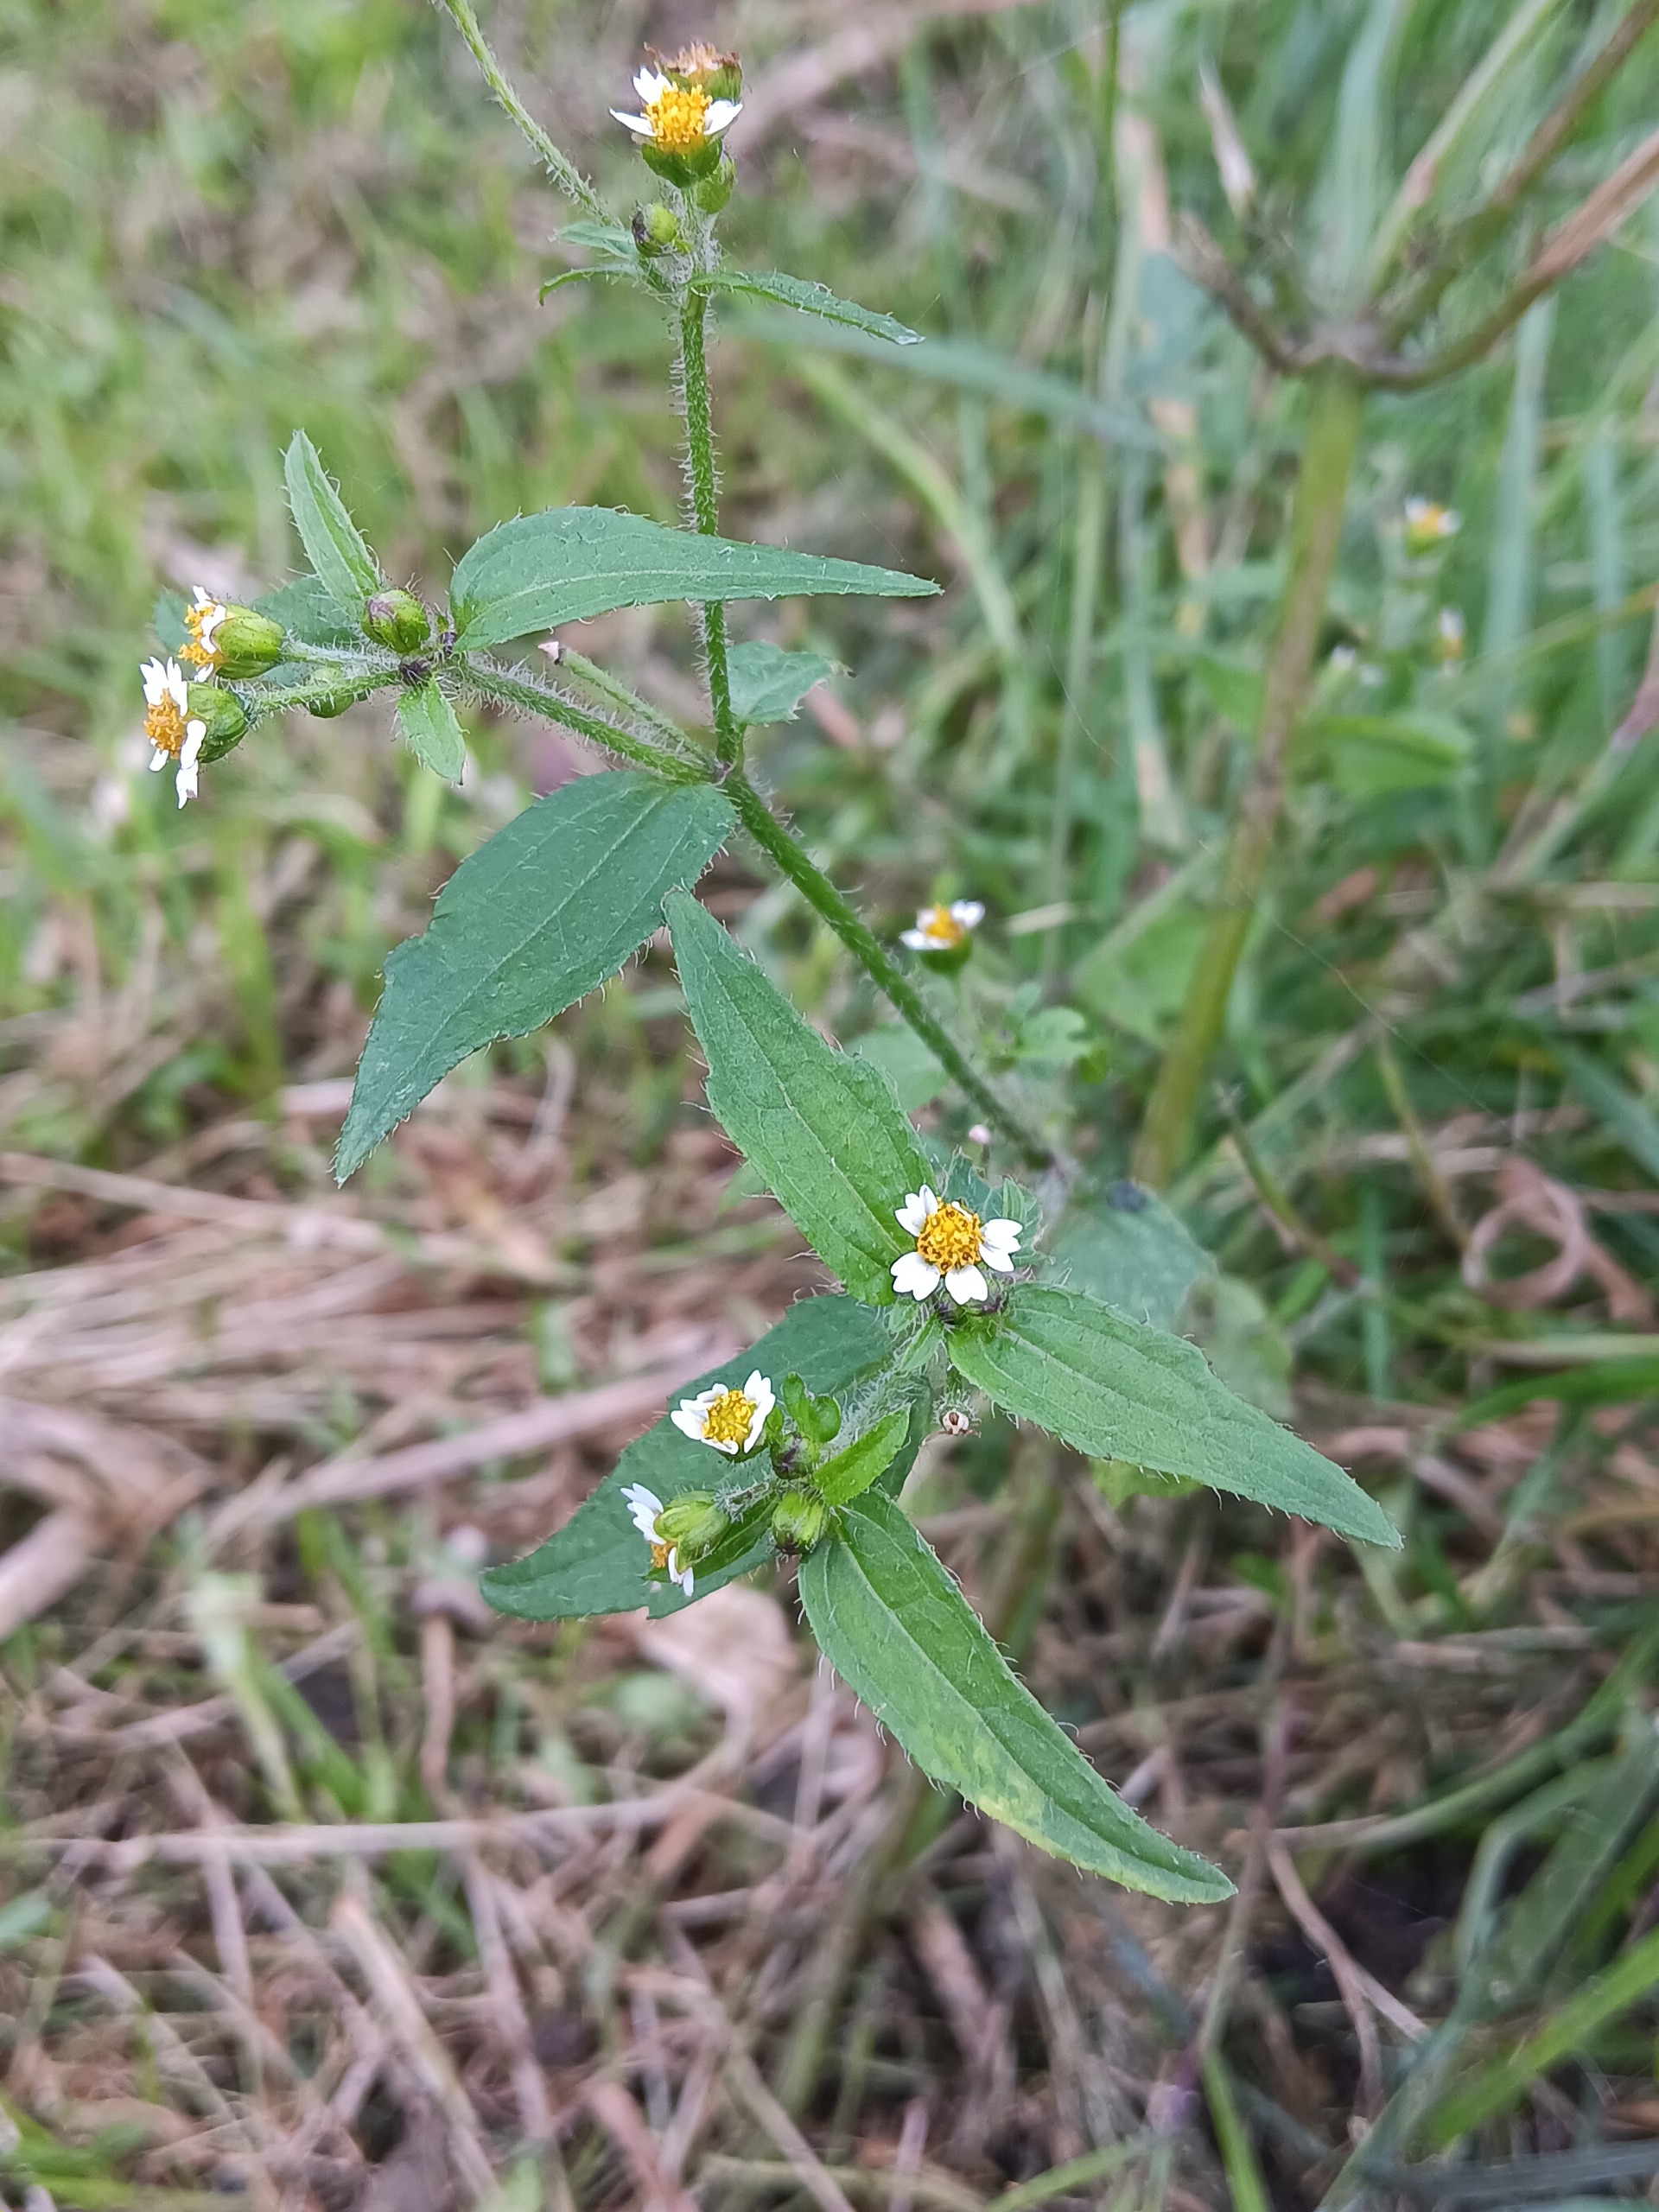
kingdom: Plantae
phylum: Tracheophyta
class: Magnoliopsida
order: Asterales
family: Asteraceae
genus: Galinsoga
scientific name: Galinsoga quadriradiata
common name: Kirtel-kortstråle
